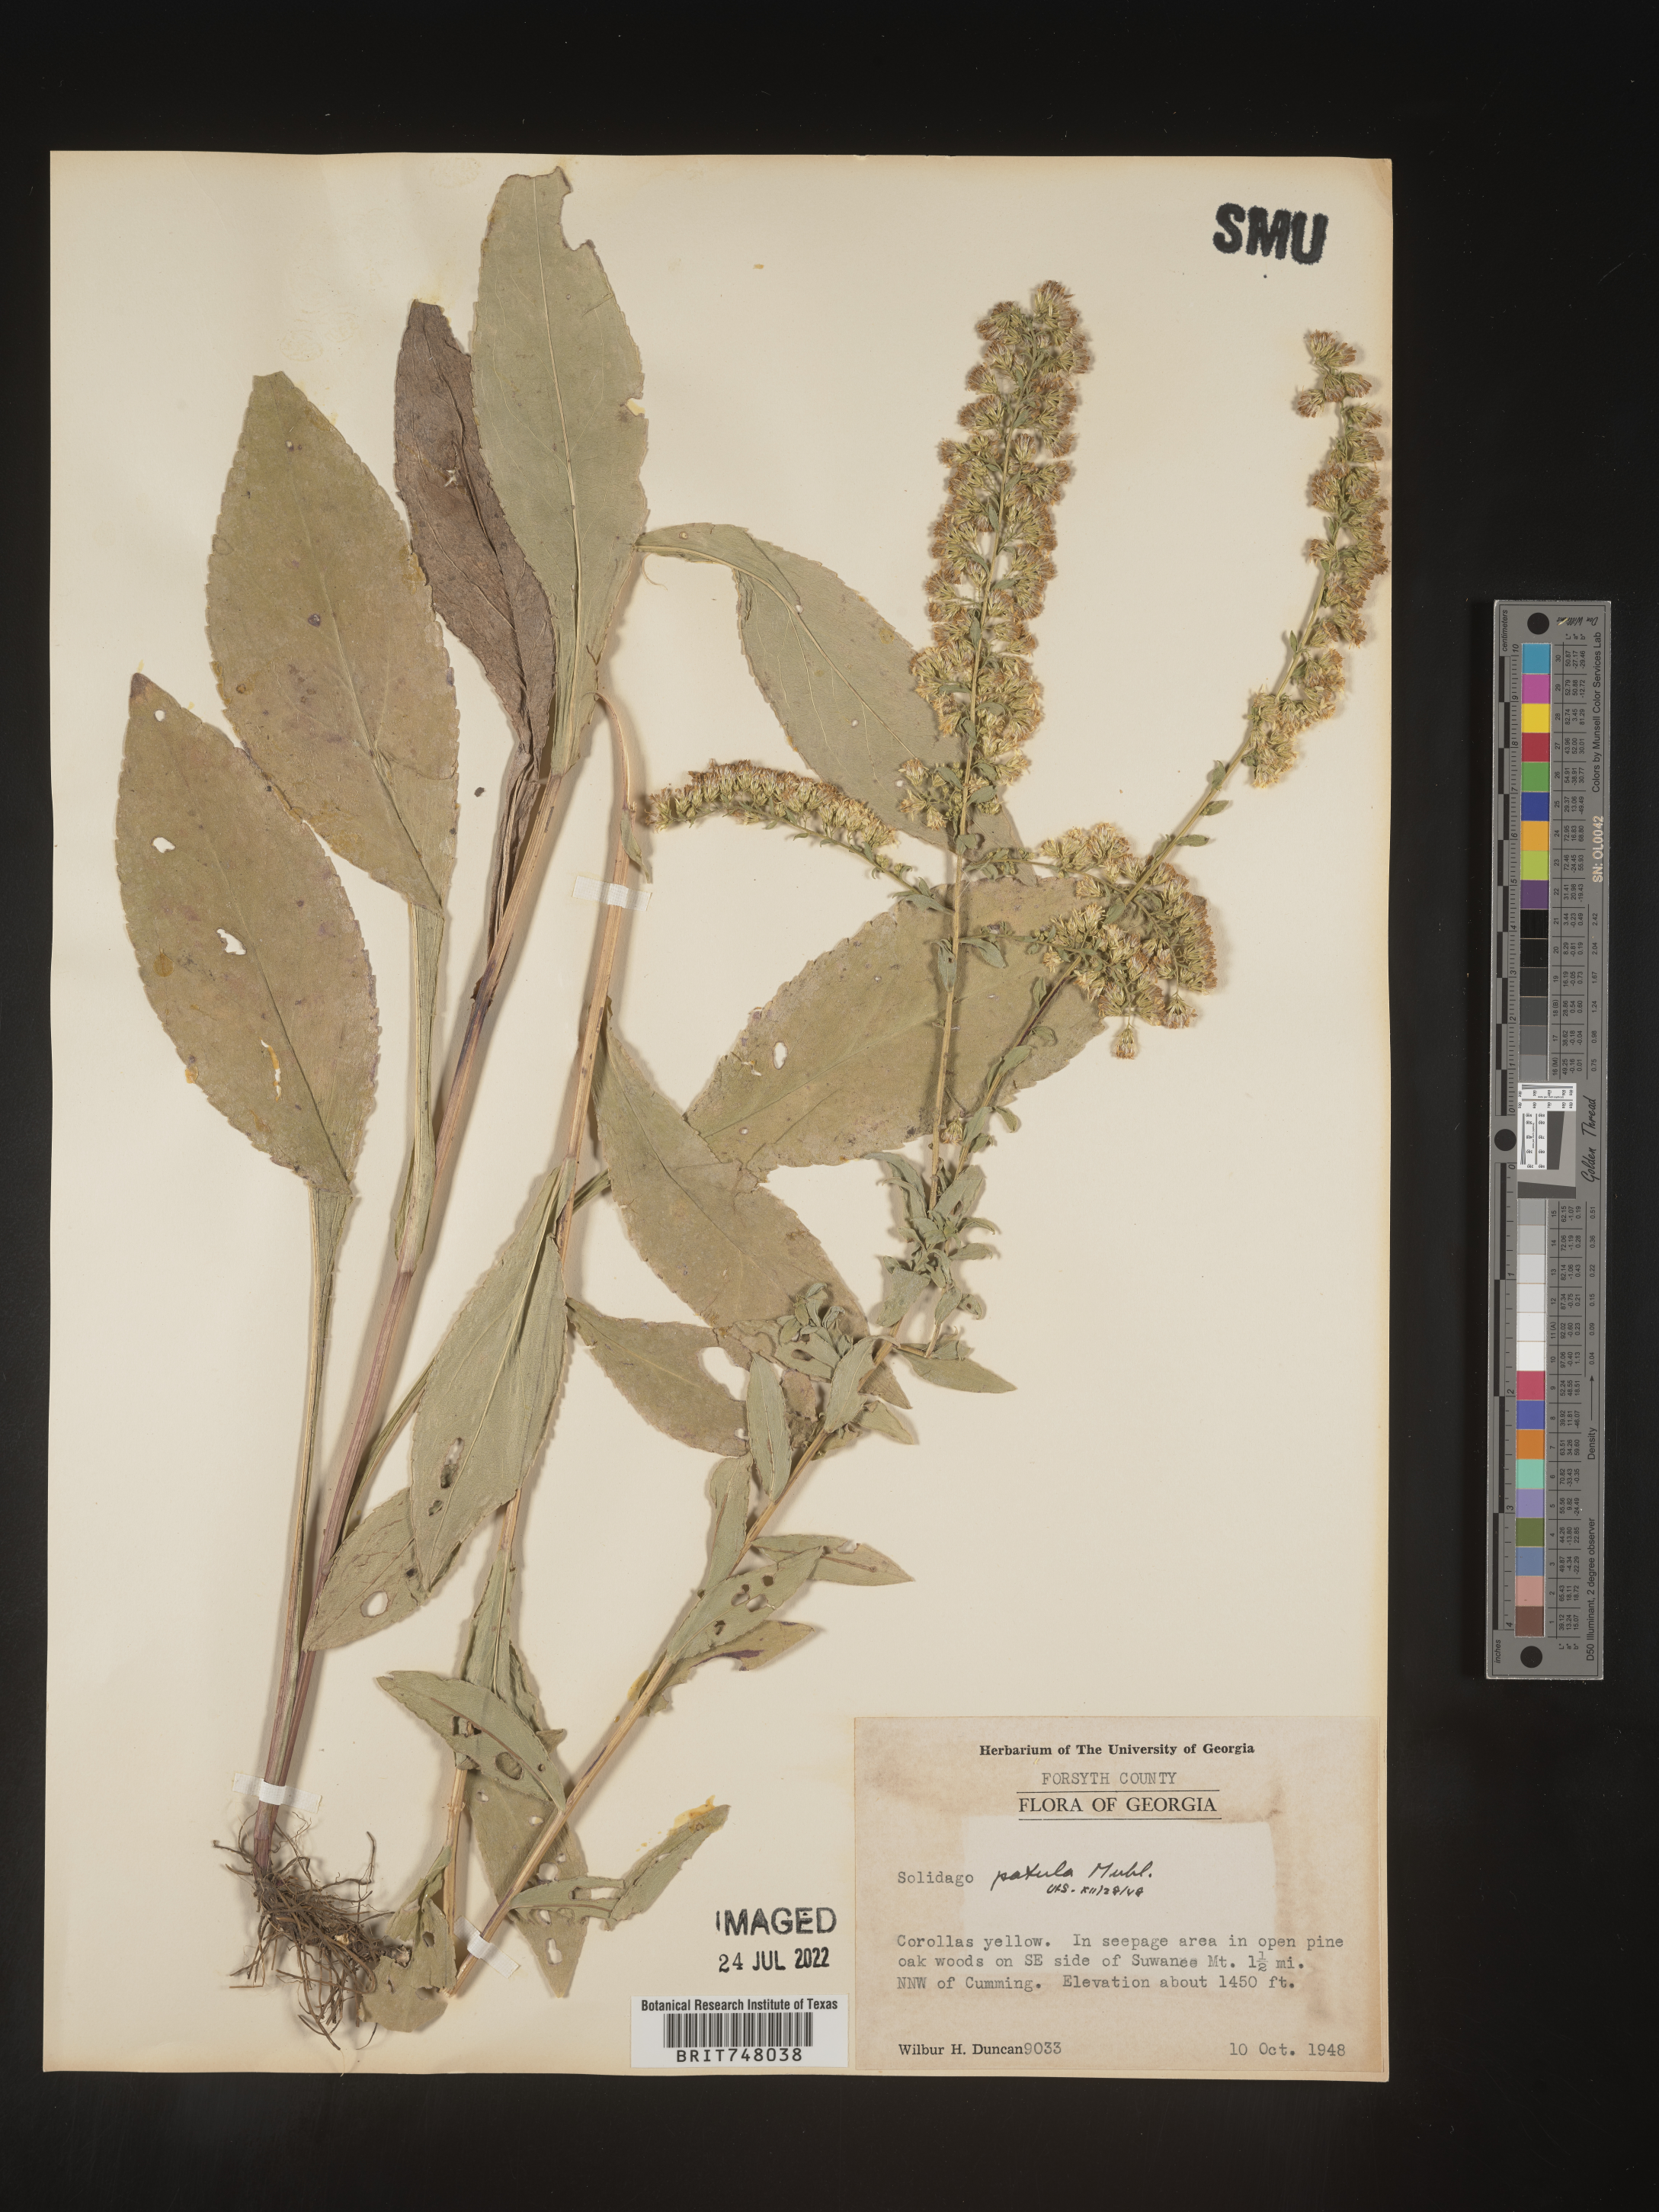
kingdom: Plantae
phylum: Tracheophyta
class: Magnoliopsida
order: Asterales
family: Asteraceae
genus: Solidago
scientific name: Solidago patula
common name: Rough-leaf goldenrod
